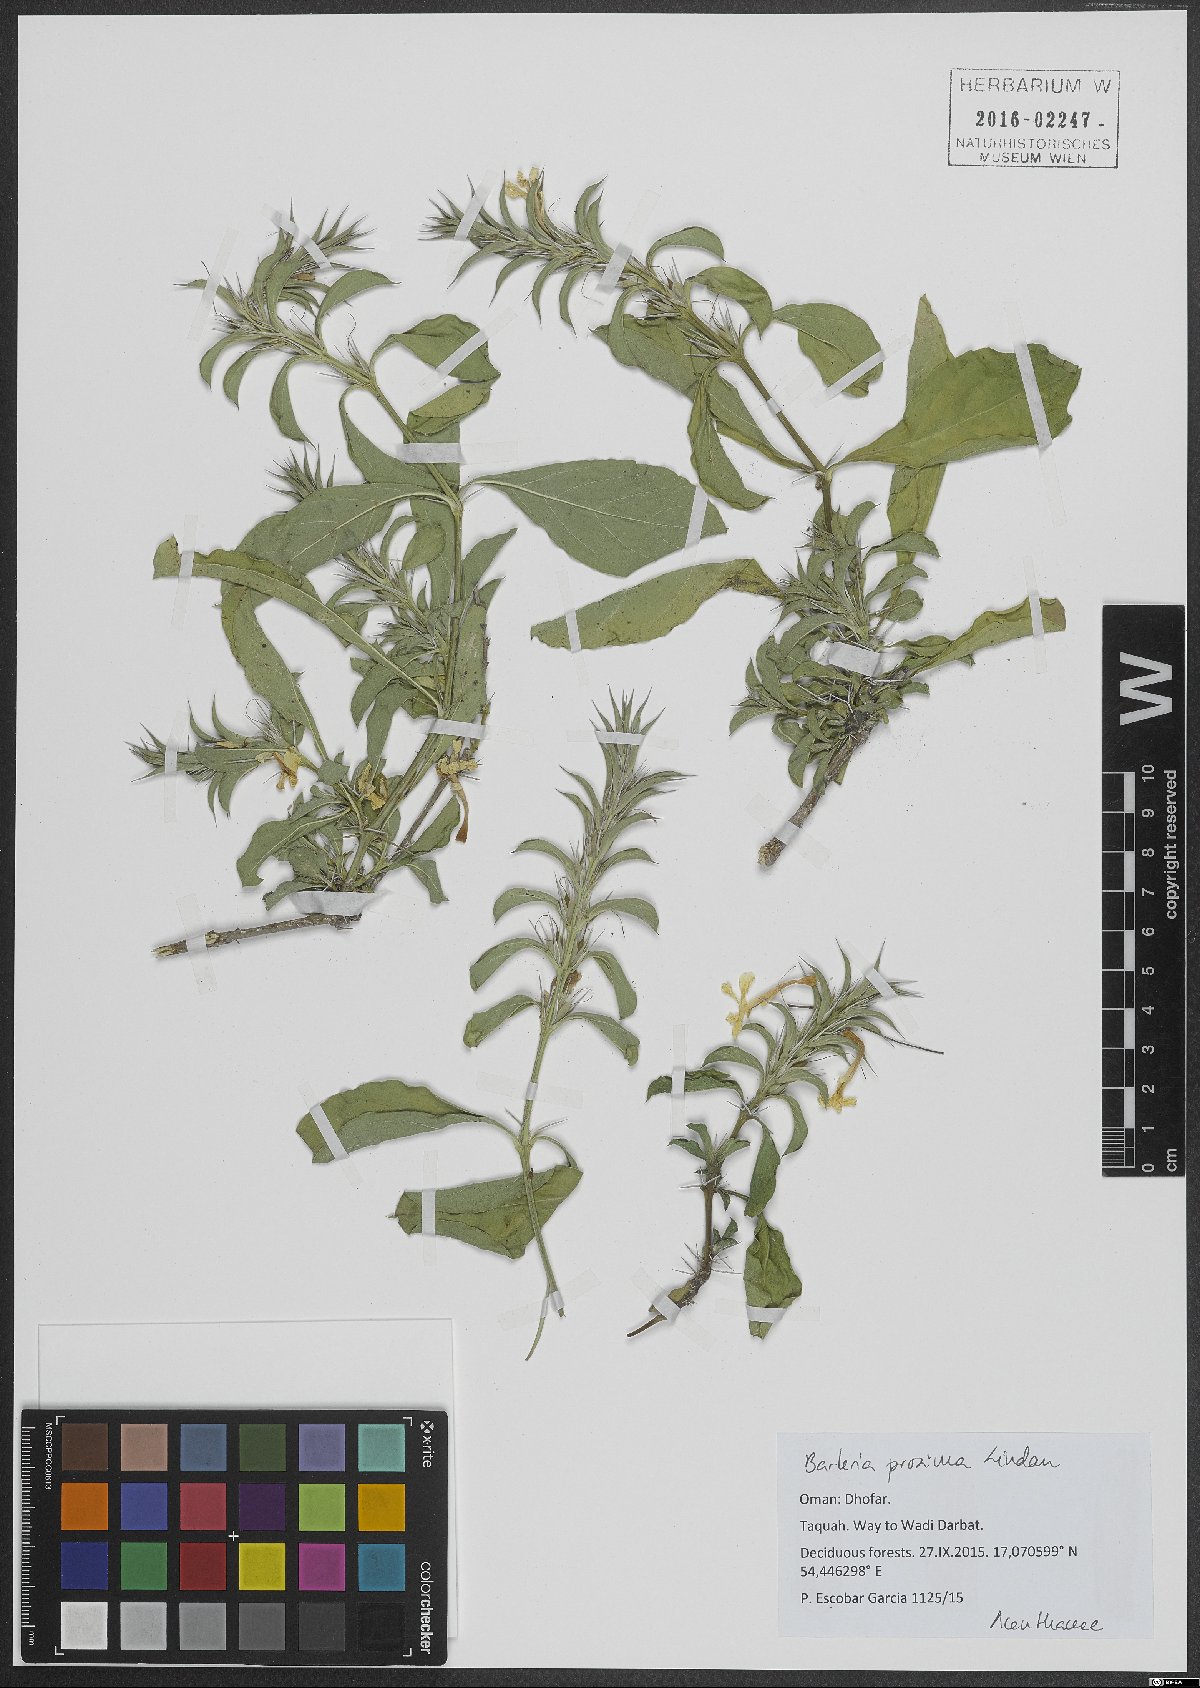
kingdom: Plantae
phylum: Tracheophyta
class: Magnoliopsida
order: Lamiales
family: Acanthaceae
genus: Barleria
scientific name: Barleria proxima
